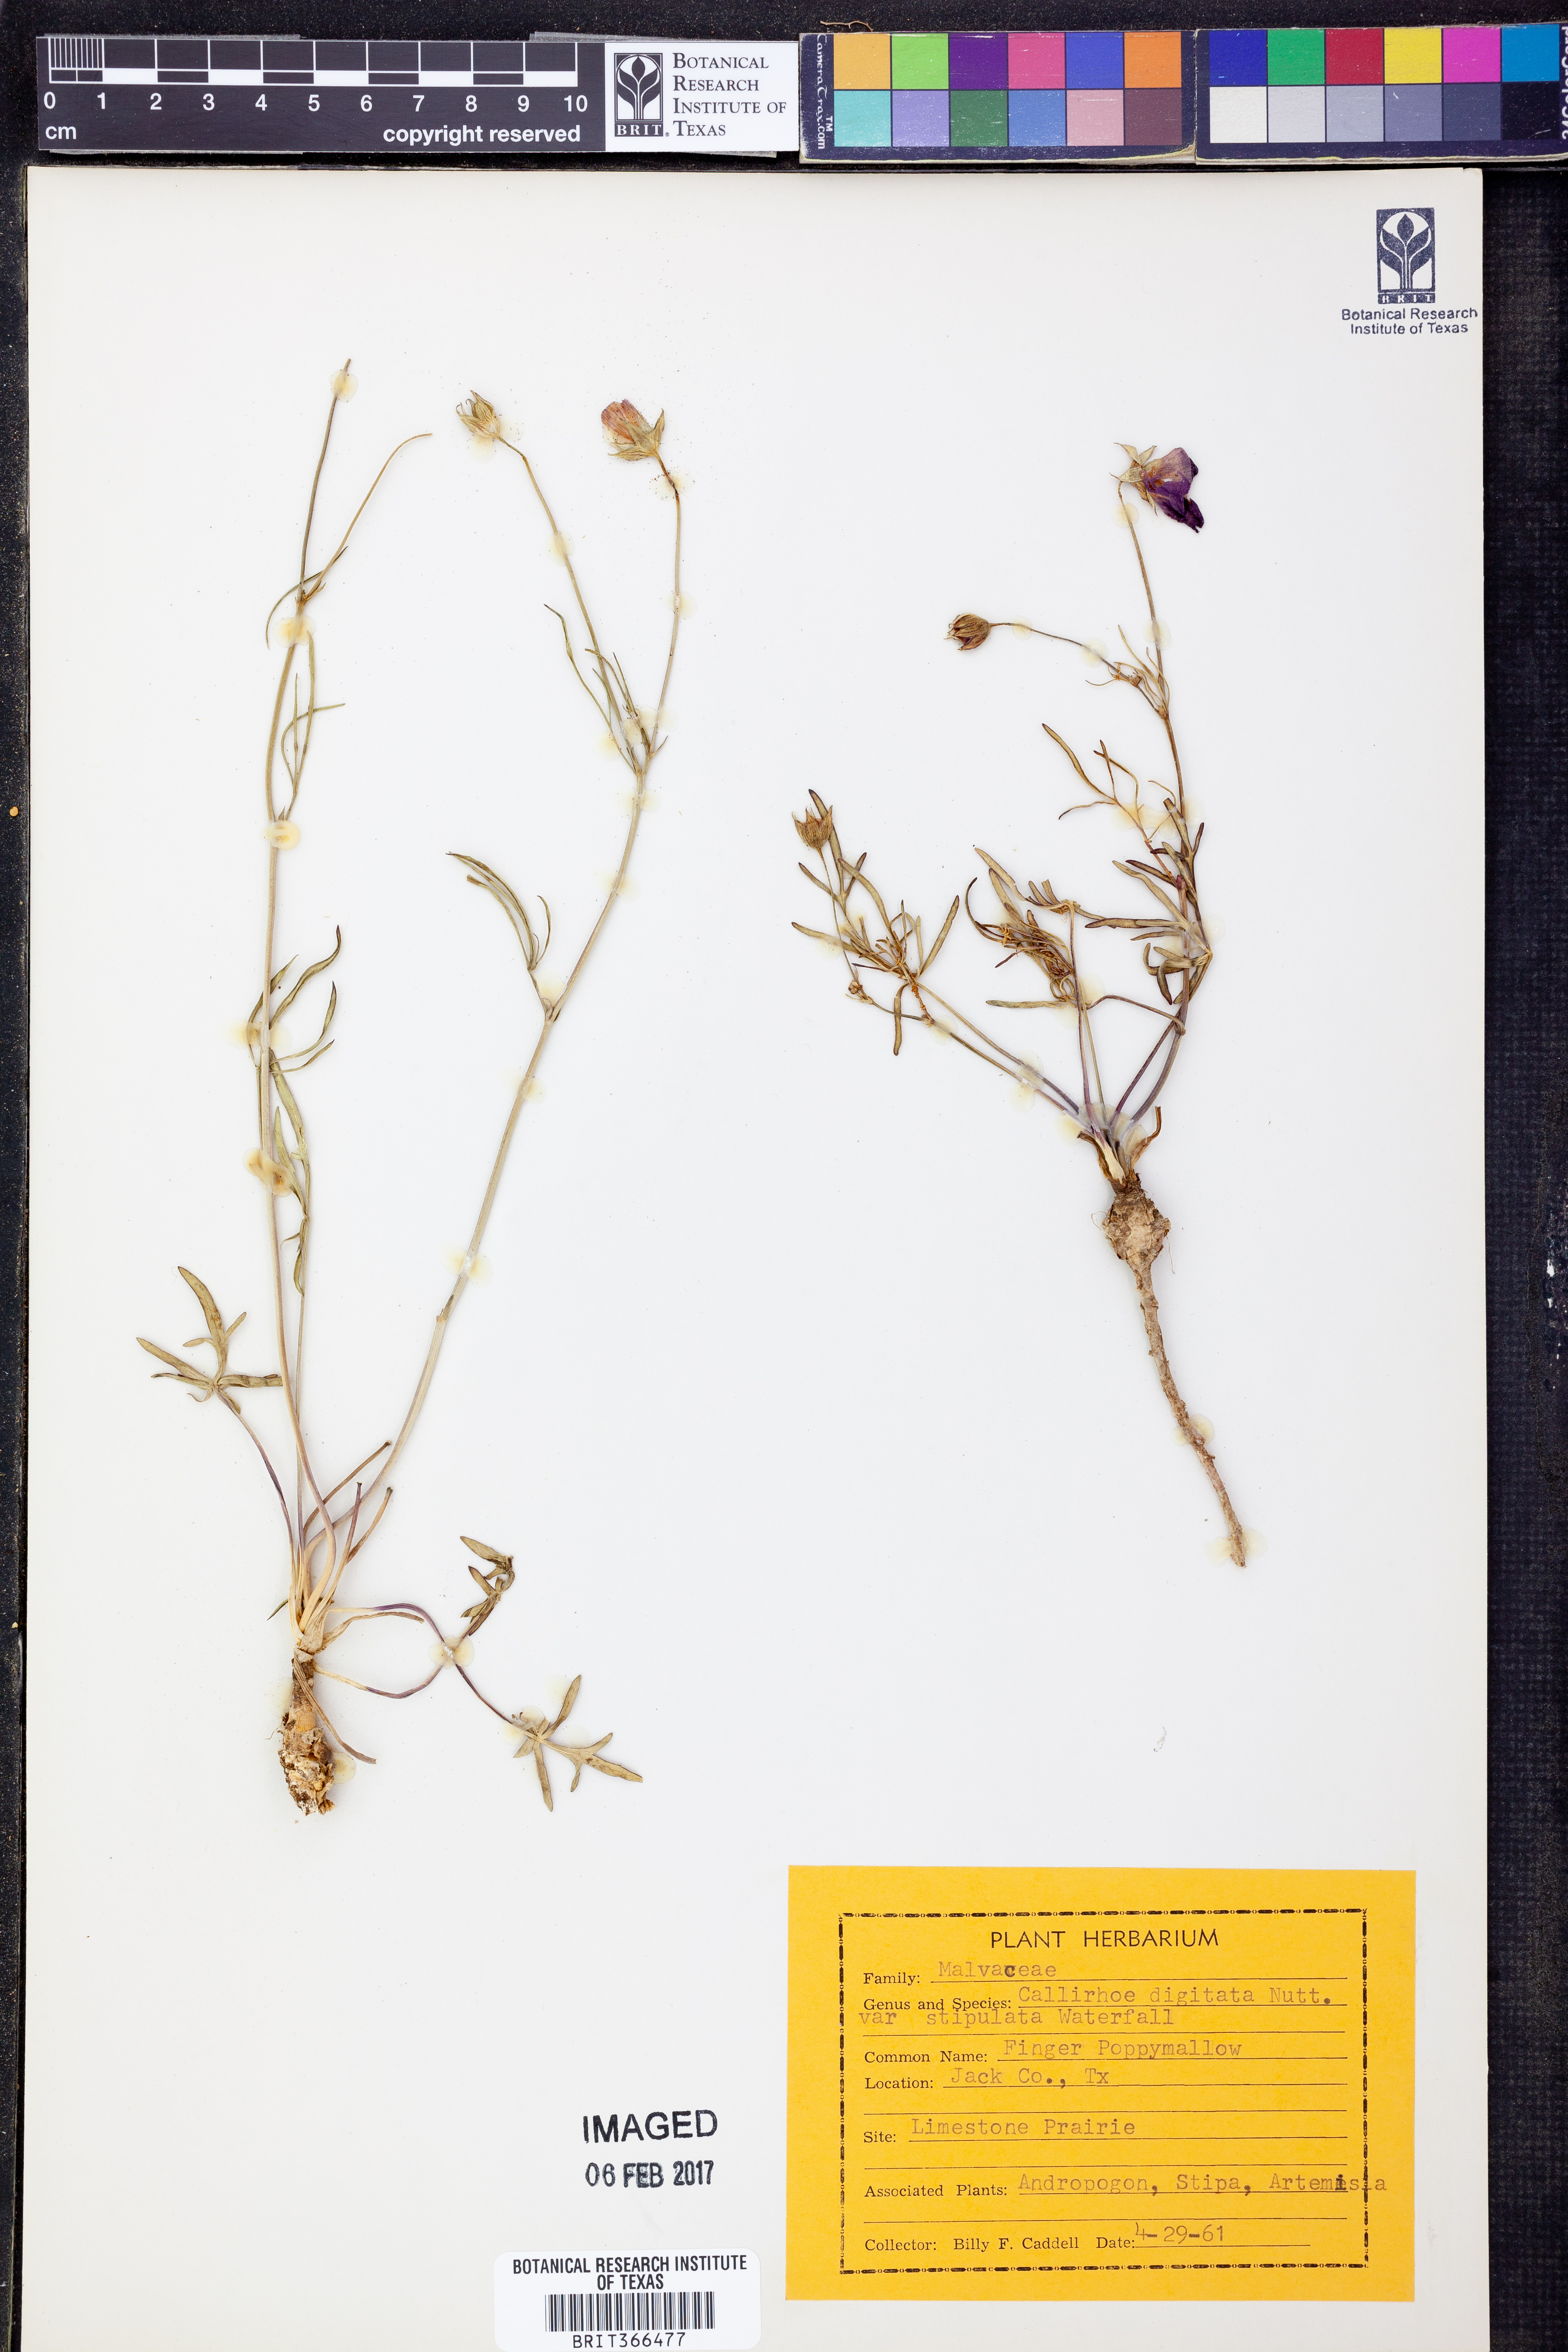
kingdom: Plantae
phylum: Tracheophyta
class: Magnoliopsida
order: Malvales
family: Malvaceae
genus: Callirhoe
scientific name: Callirhoe pedata
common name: Finger poppy-mallow
